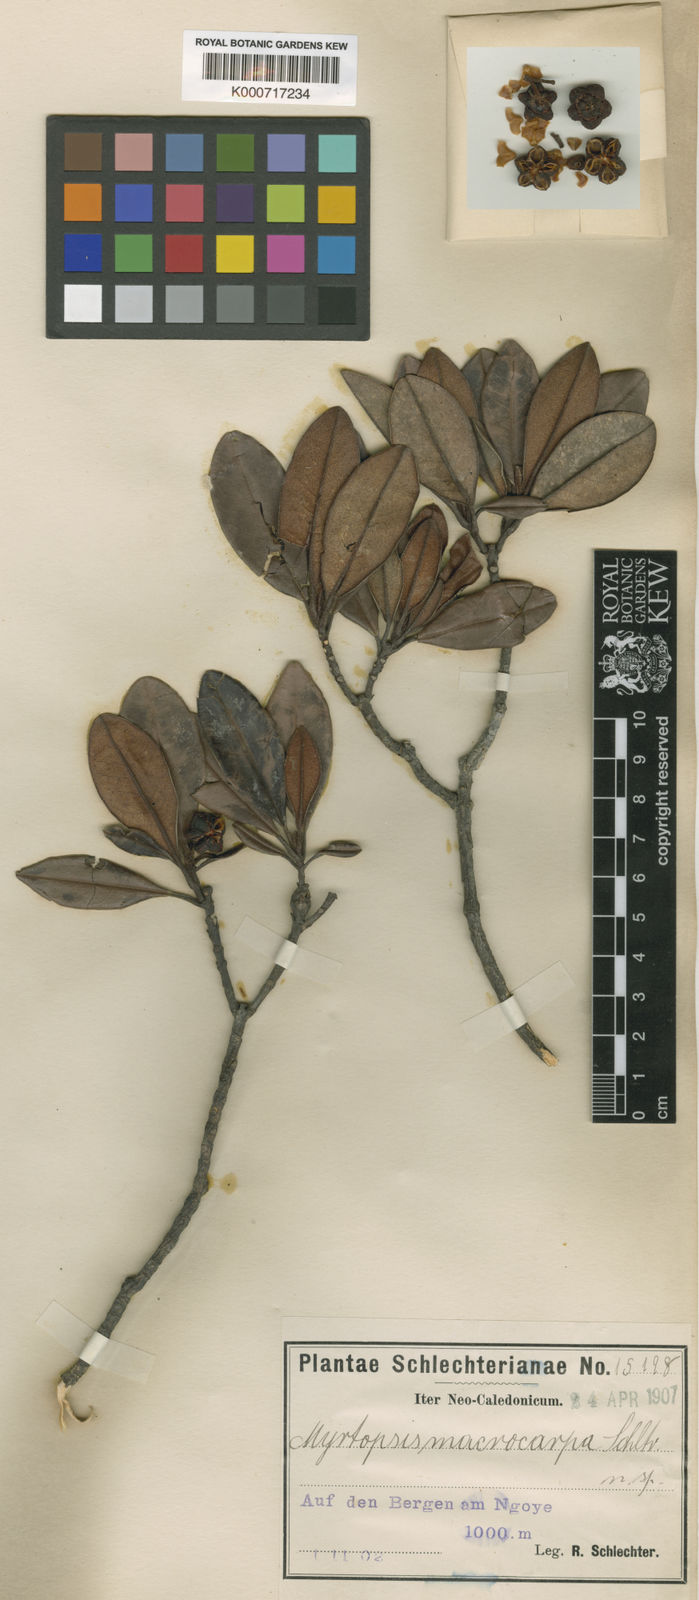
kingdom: Plantae
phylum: Tracheophyta
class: Magnoliopsida
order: Sapindales
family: Rutaceae
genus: Myrtopsis
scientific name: Myrtopsis macrocarpa
